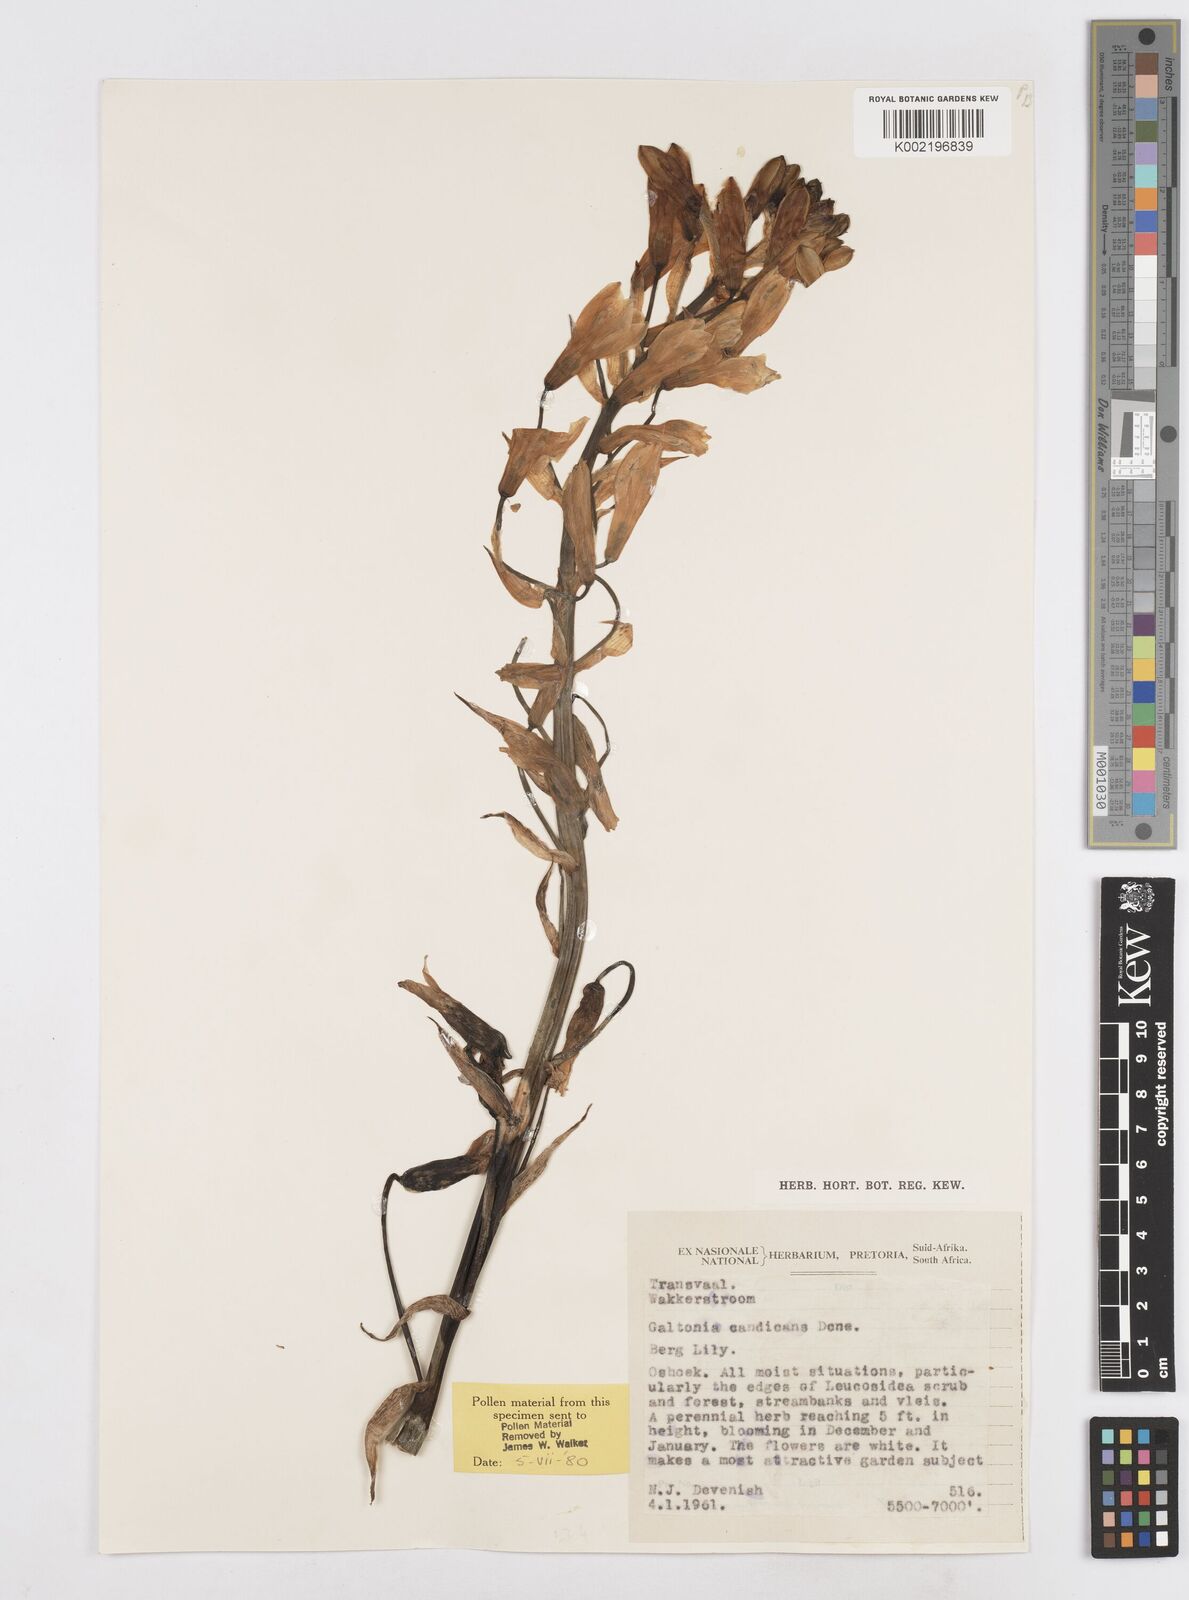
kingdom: Plantae
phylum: Tracheophyta
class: Liliopsida
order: Asparagales
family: Asparagaceae
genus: Ornithogalum
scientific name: Ornithogalum candicans
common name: Summer-hyacinth
